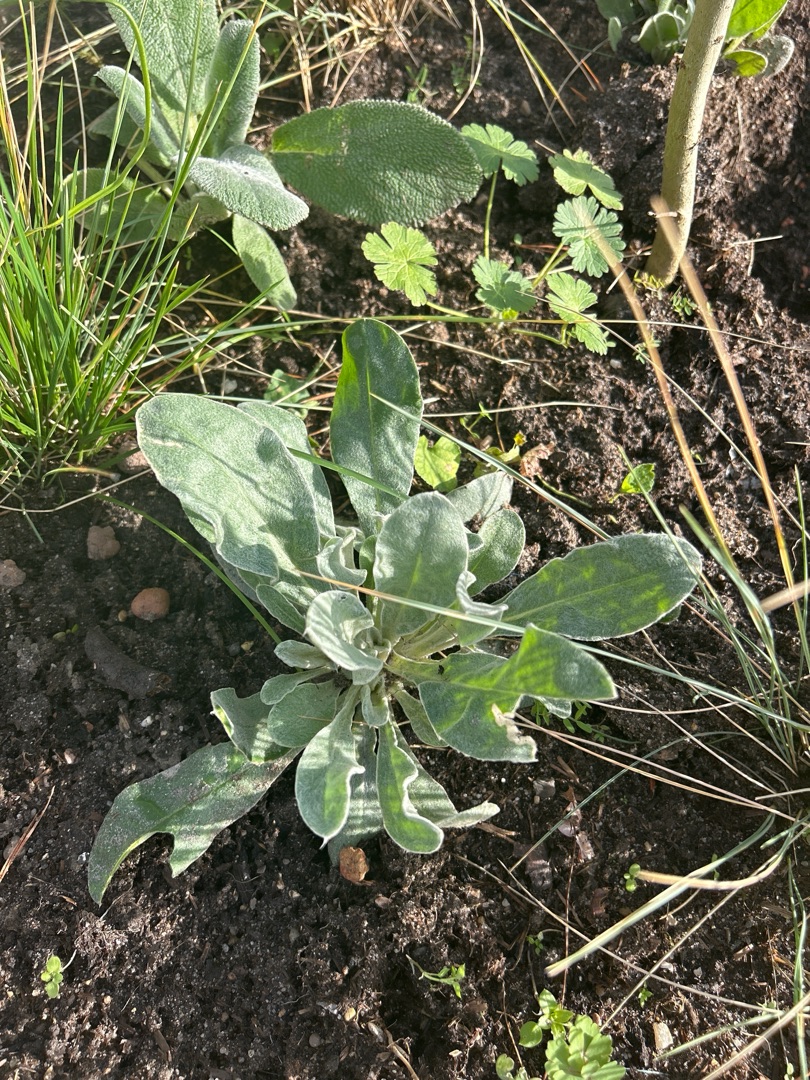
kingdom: Plantae
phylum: Tracheophyta
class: Magnoliopsida
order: Caryophyllales
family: Caryophyllaceae
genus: Silene
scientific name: Silene coronaria
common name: Fiksernellike
